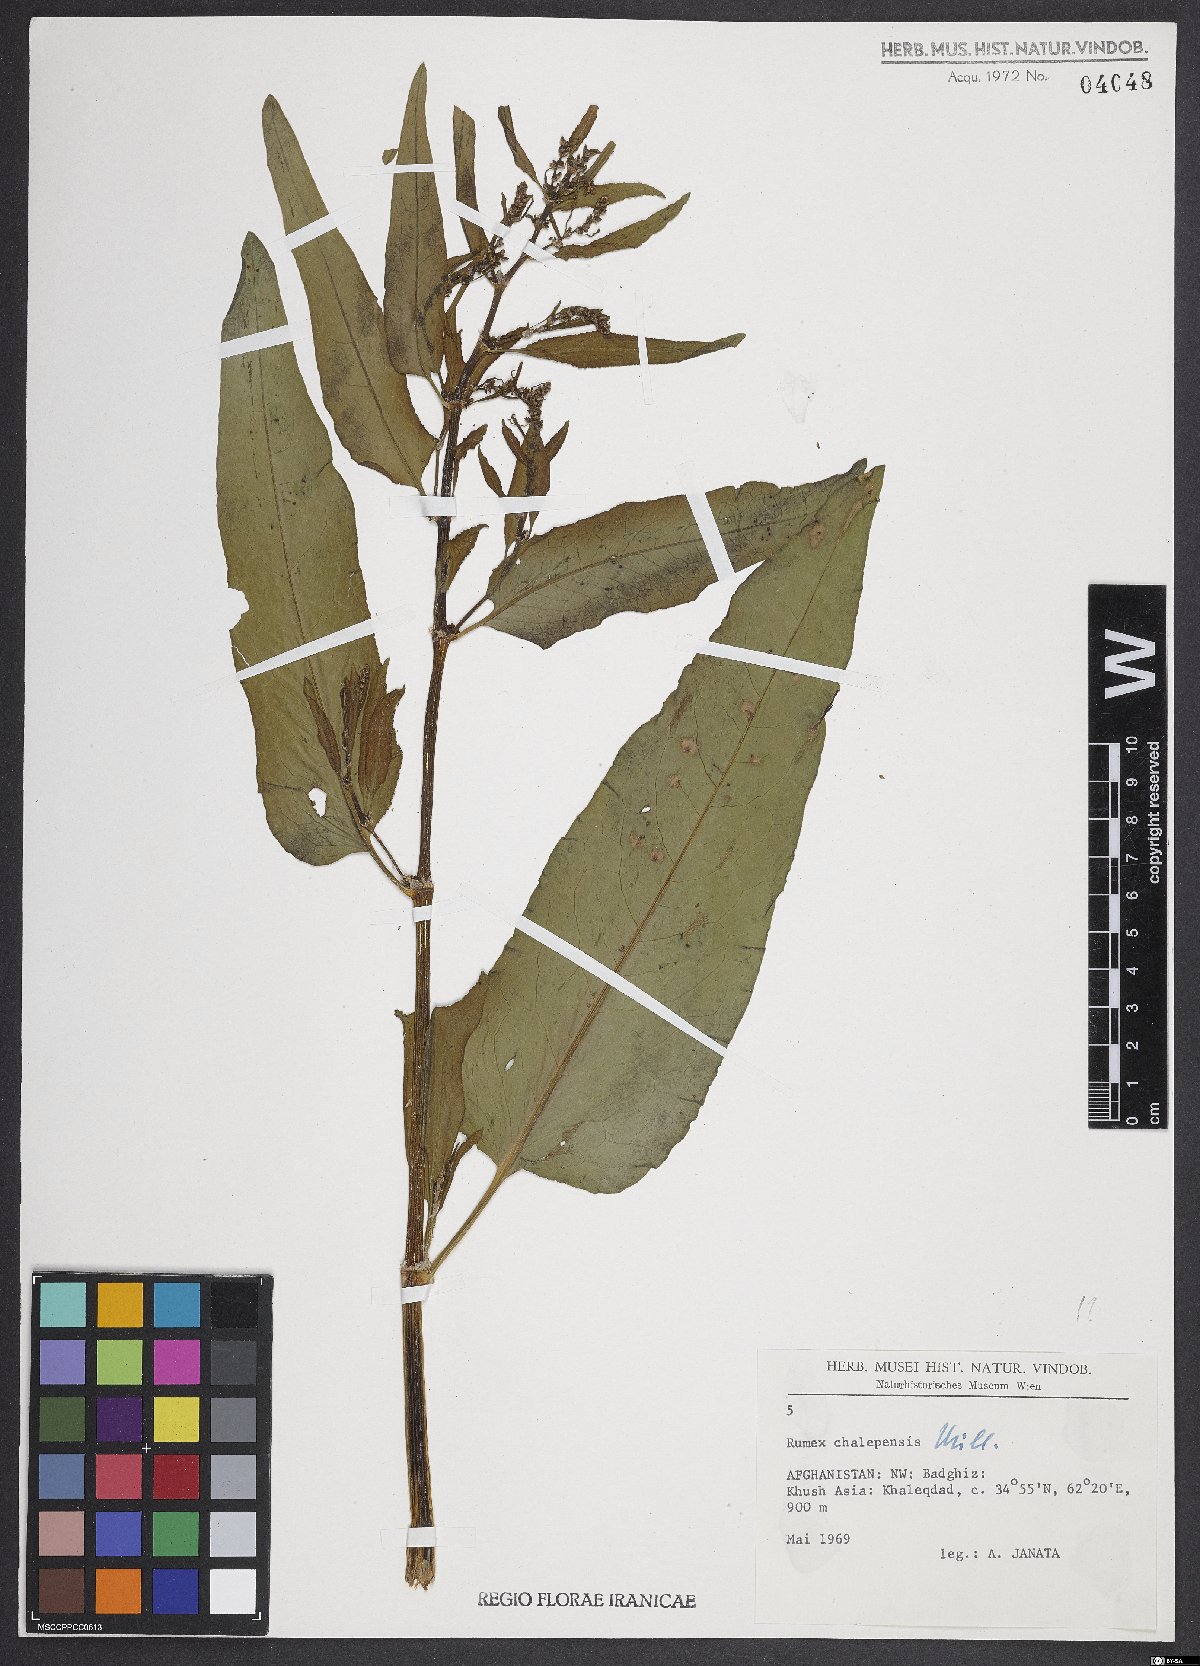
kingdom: Plantae
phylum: Tracheophyta
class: Magnoliopsida
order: Caryophyllales
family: Polygonaceae
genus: Rumex
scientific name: Rumex chalepensis
